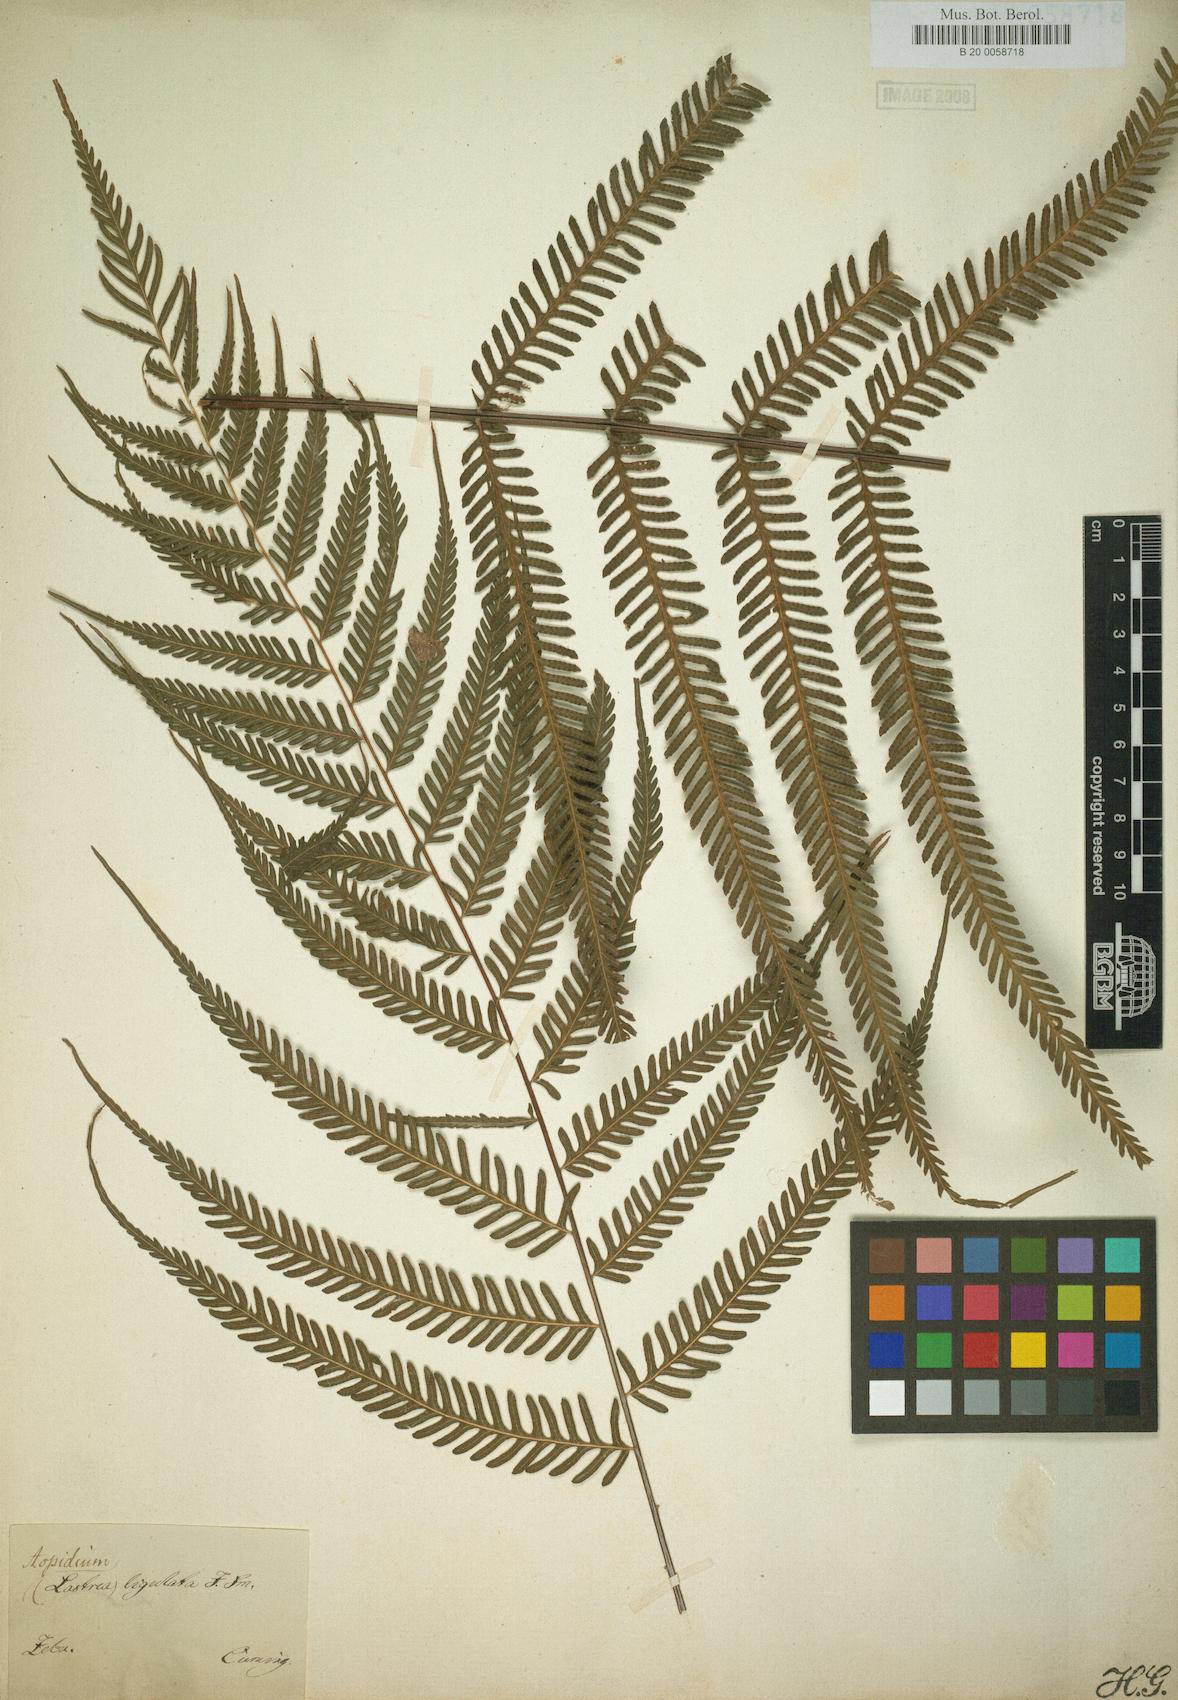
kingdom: Plantae
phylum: Tracheophyta
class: Polypodiopsida
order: Polypodiales
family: Thelypteridaceae
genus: Plesioneuron
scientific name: Plesioneuron ligulatum
